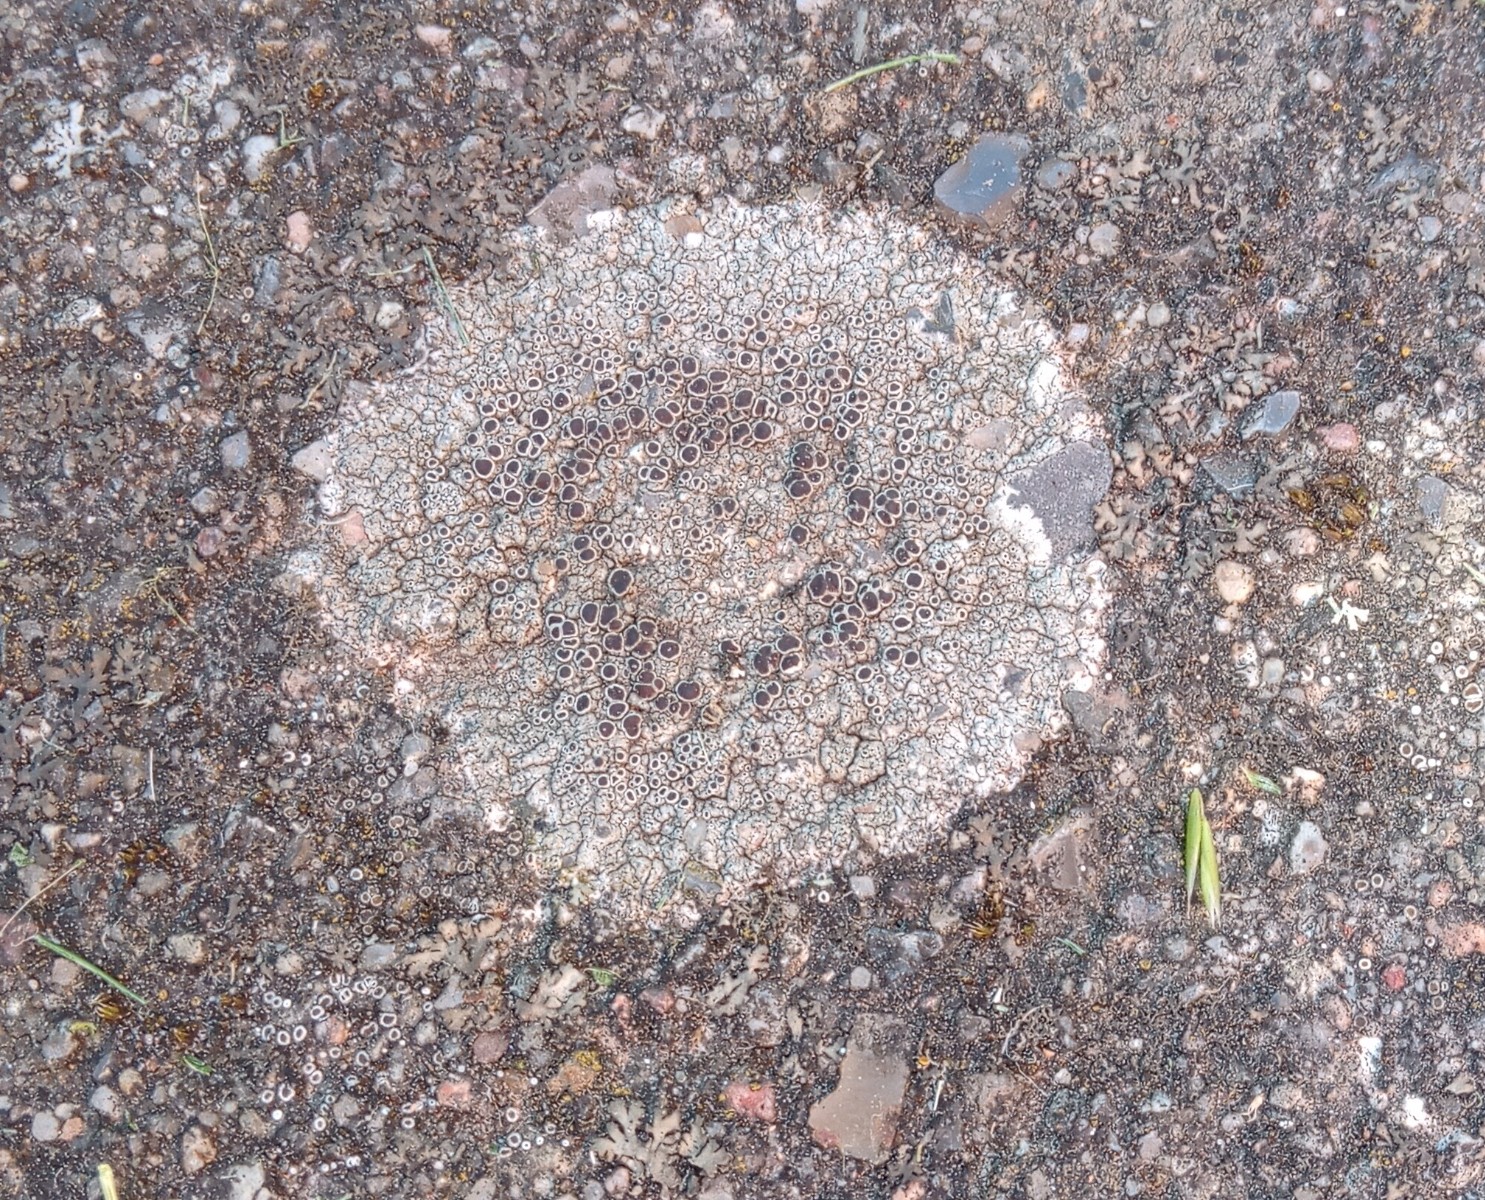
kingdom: Fungi
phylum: Ascomycota
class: Lecanoromycetes
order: Lecanorales
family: Lecanoraceae
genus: Lecanora
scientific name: Lecanora campestris
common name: mur-kantskivelav
